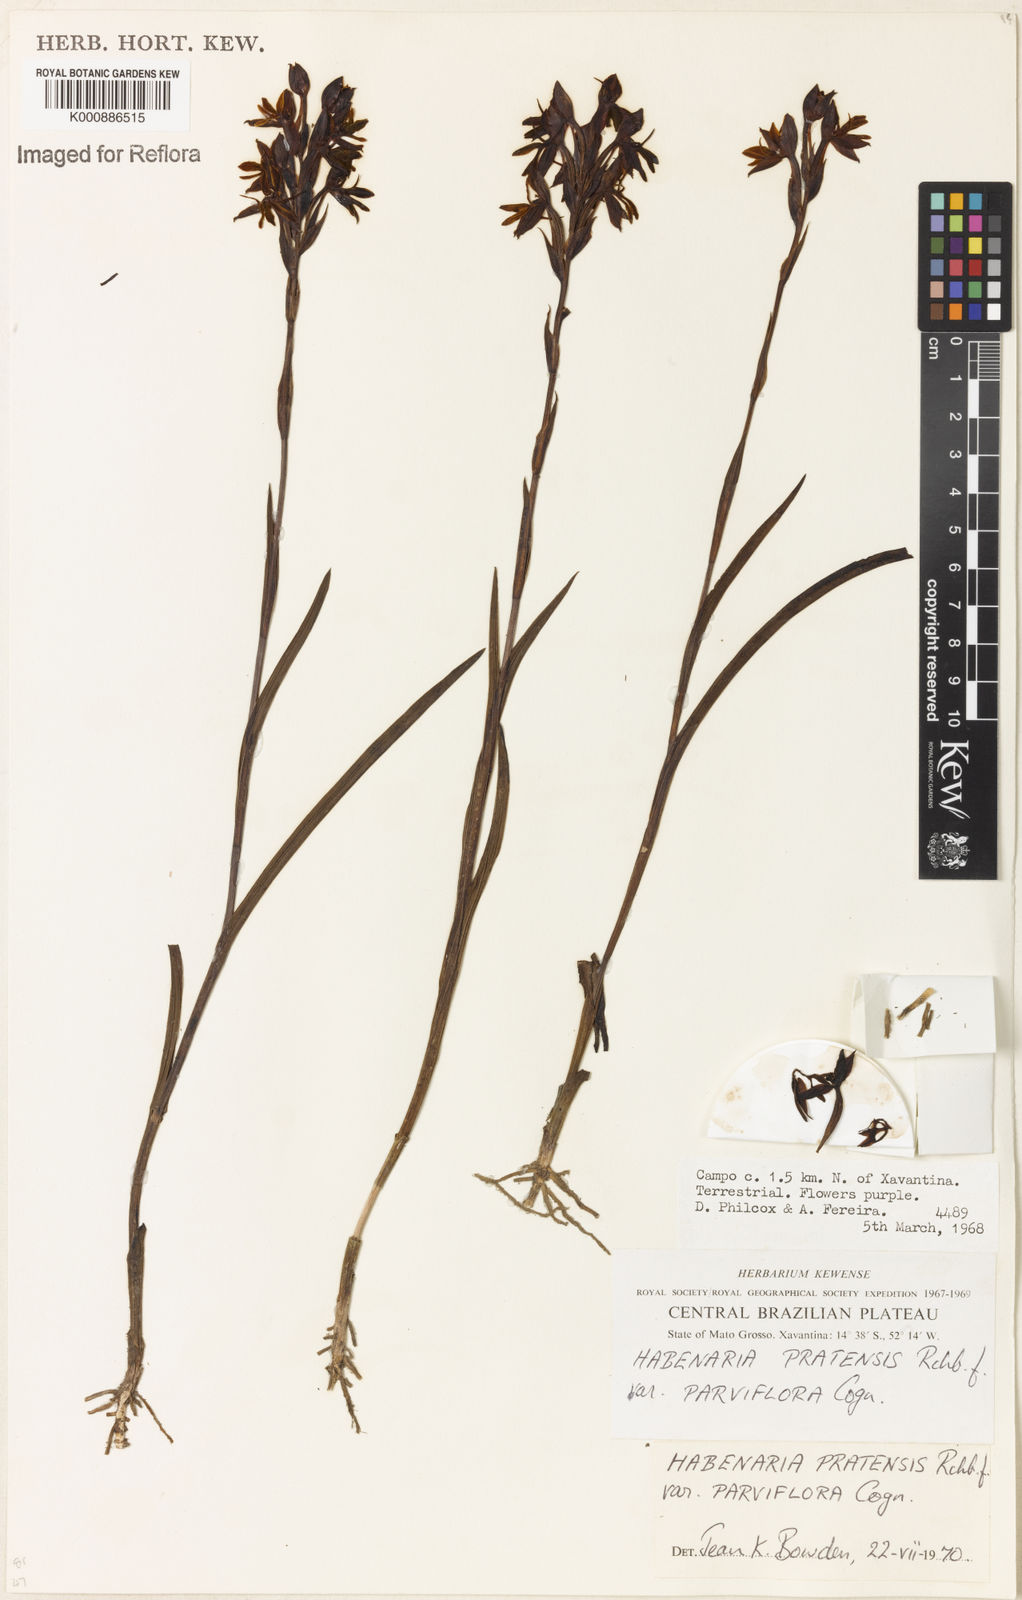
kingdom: Plantae
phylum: Tracheophyta
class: Liliopsida
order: Asparagales
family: Orchidaceae
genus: Habenaria
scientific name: Habenaria pratensis
